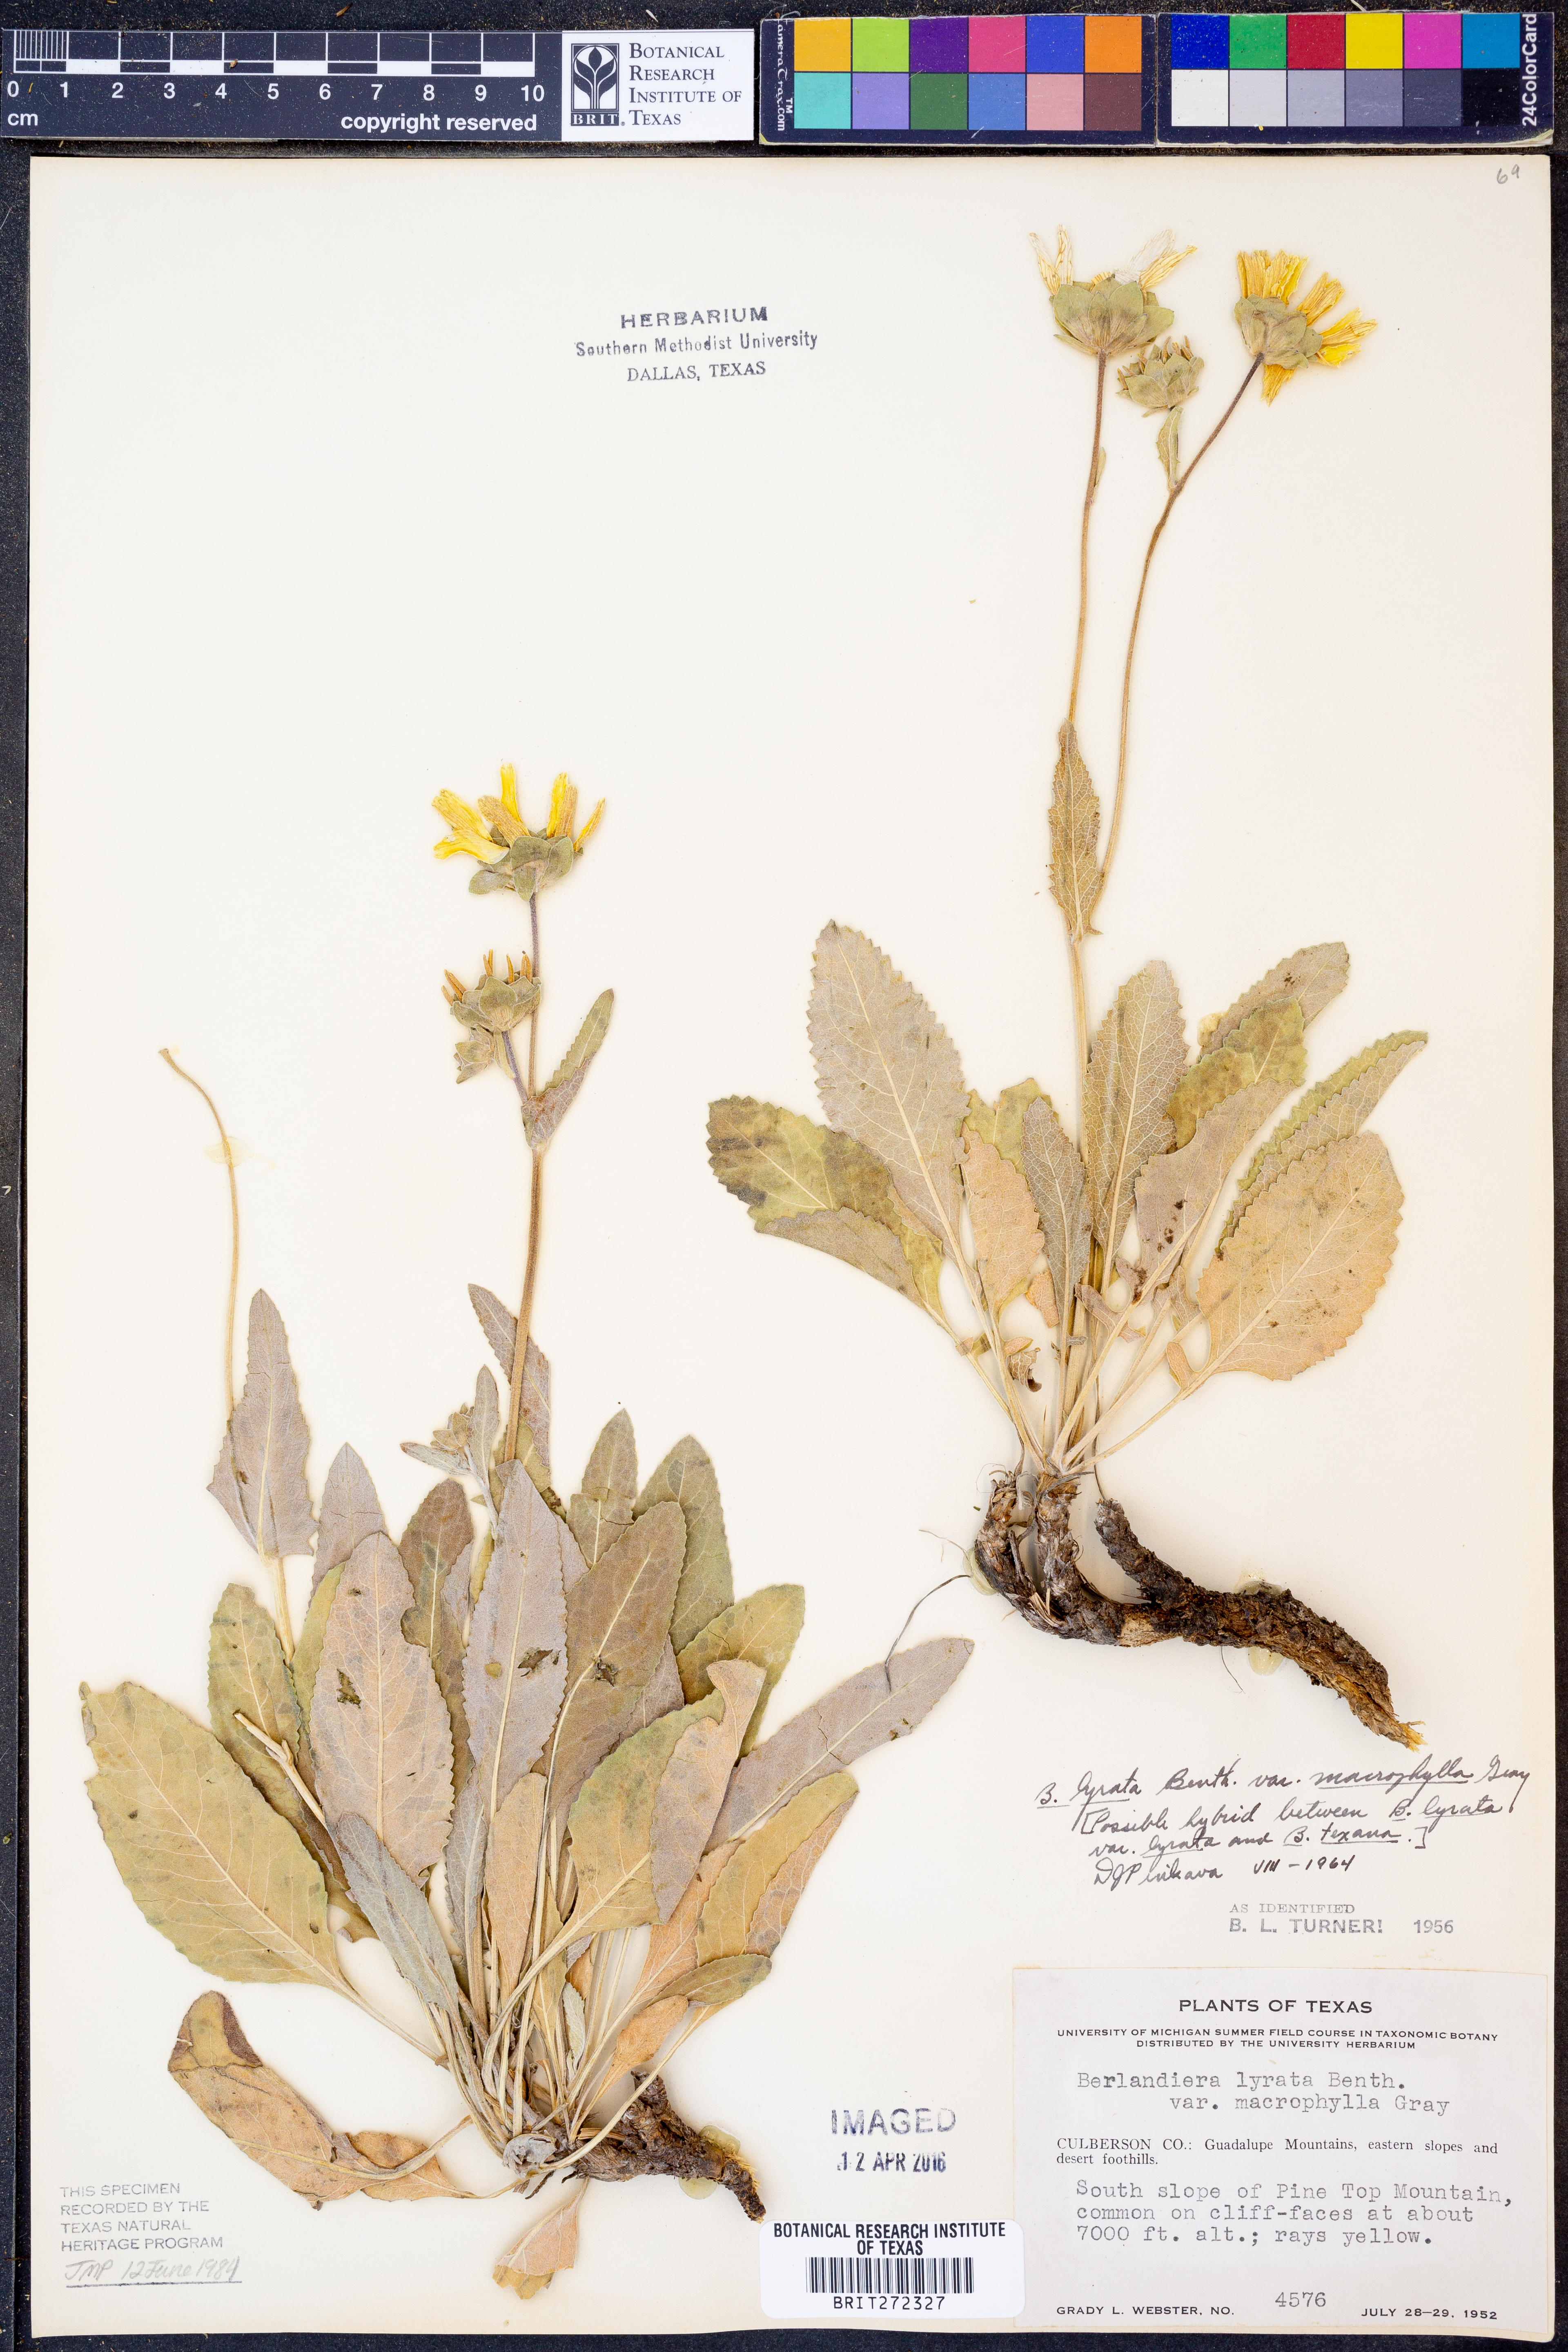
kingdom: Plantae
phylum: Tracheophyta
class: Magnoliopsida
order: Asterales
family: Asteraceae
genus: Berlandiera
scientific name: Berlandiera macrophylla
